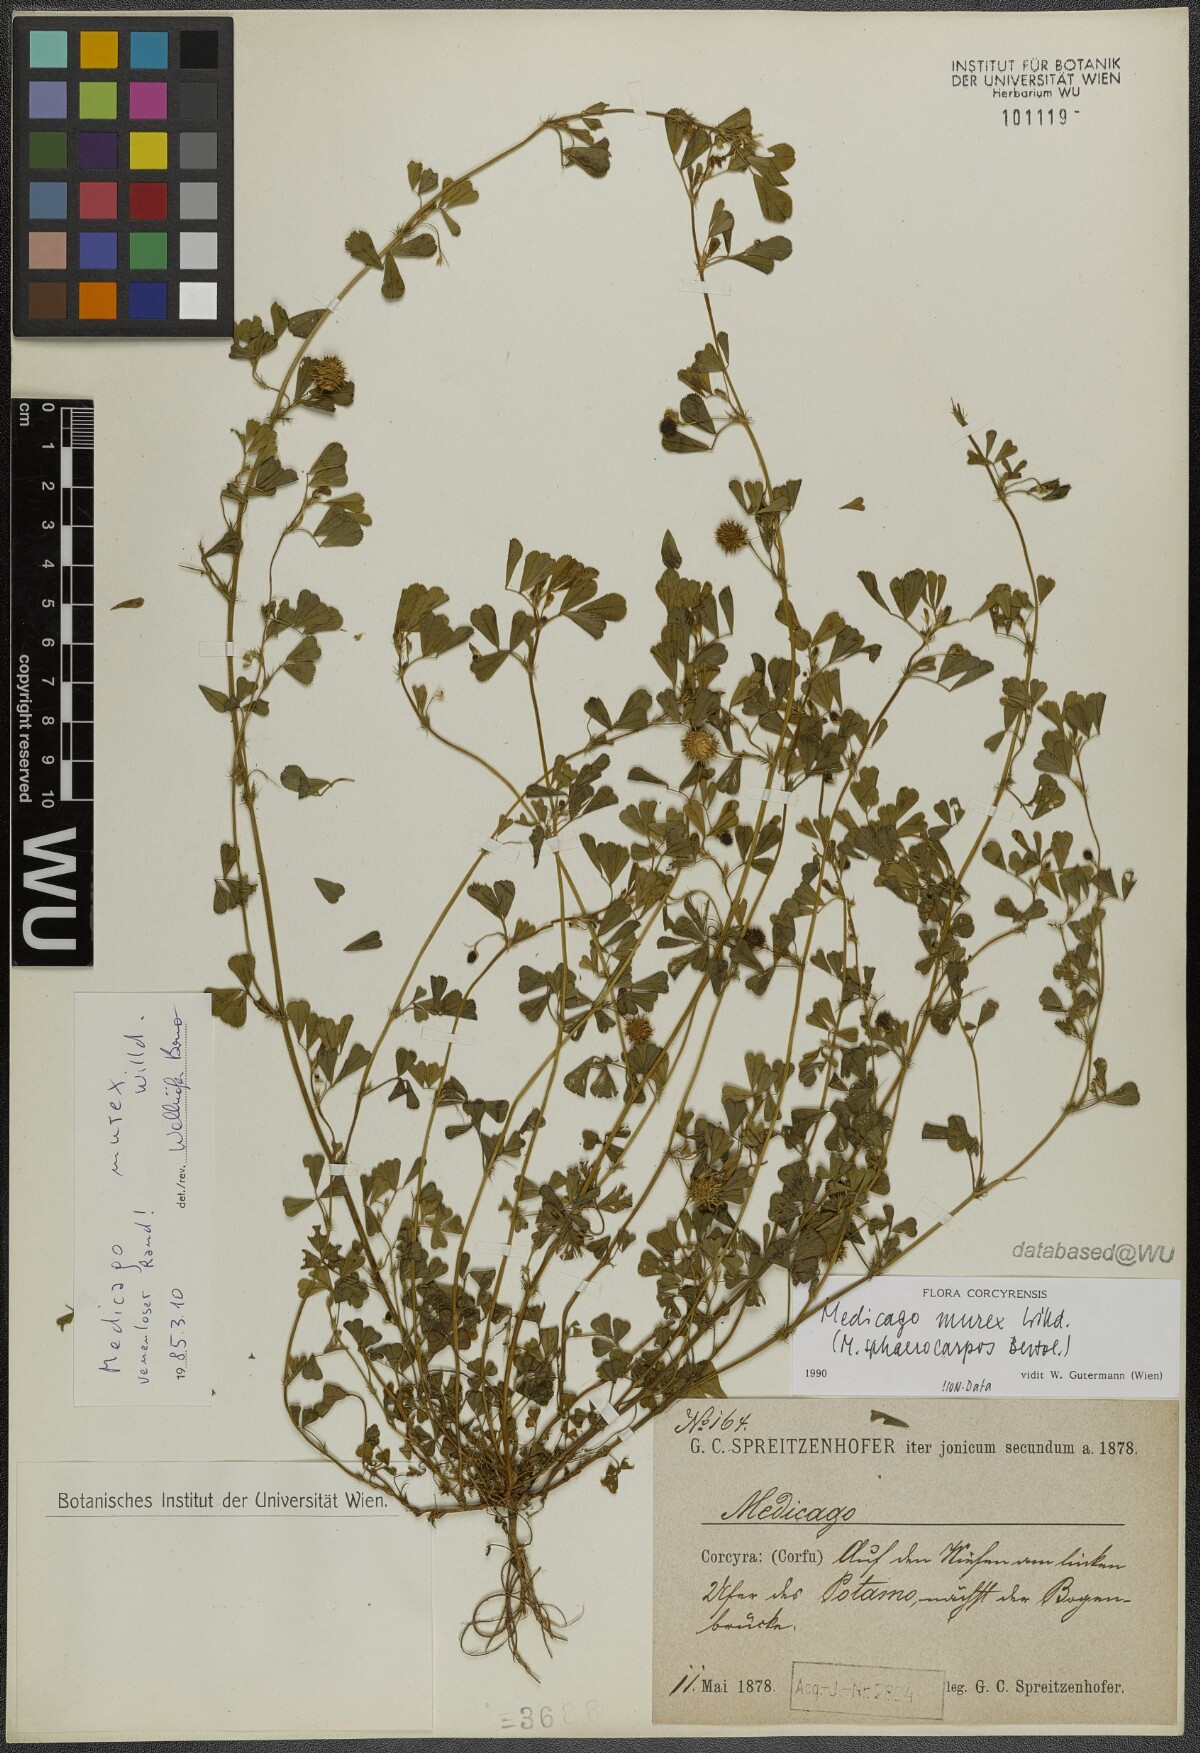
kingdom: Plantae
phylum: Tracheophyta
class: Magnoliopsida
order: Fabales
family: Fabaceae
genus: Medicago
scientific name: Medicago murex
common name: Murex
